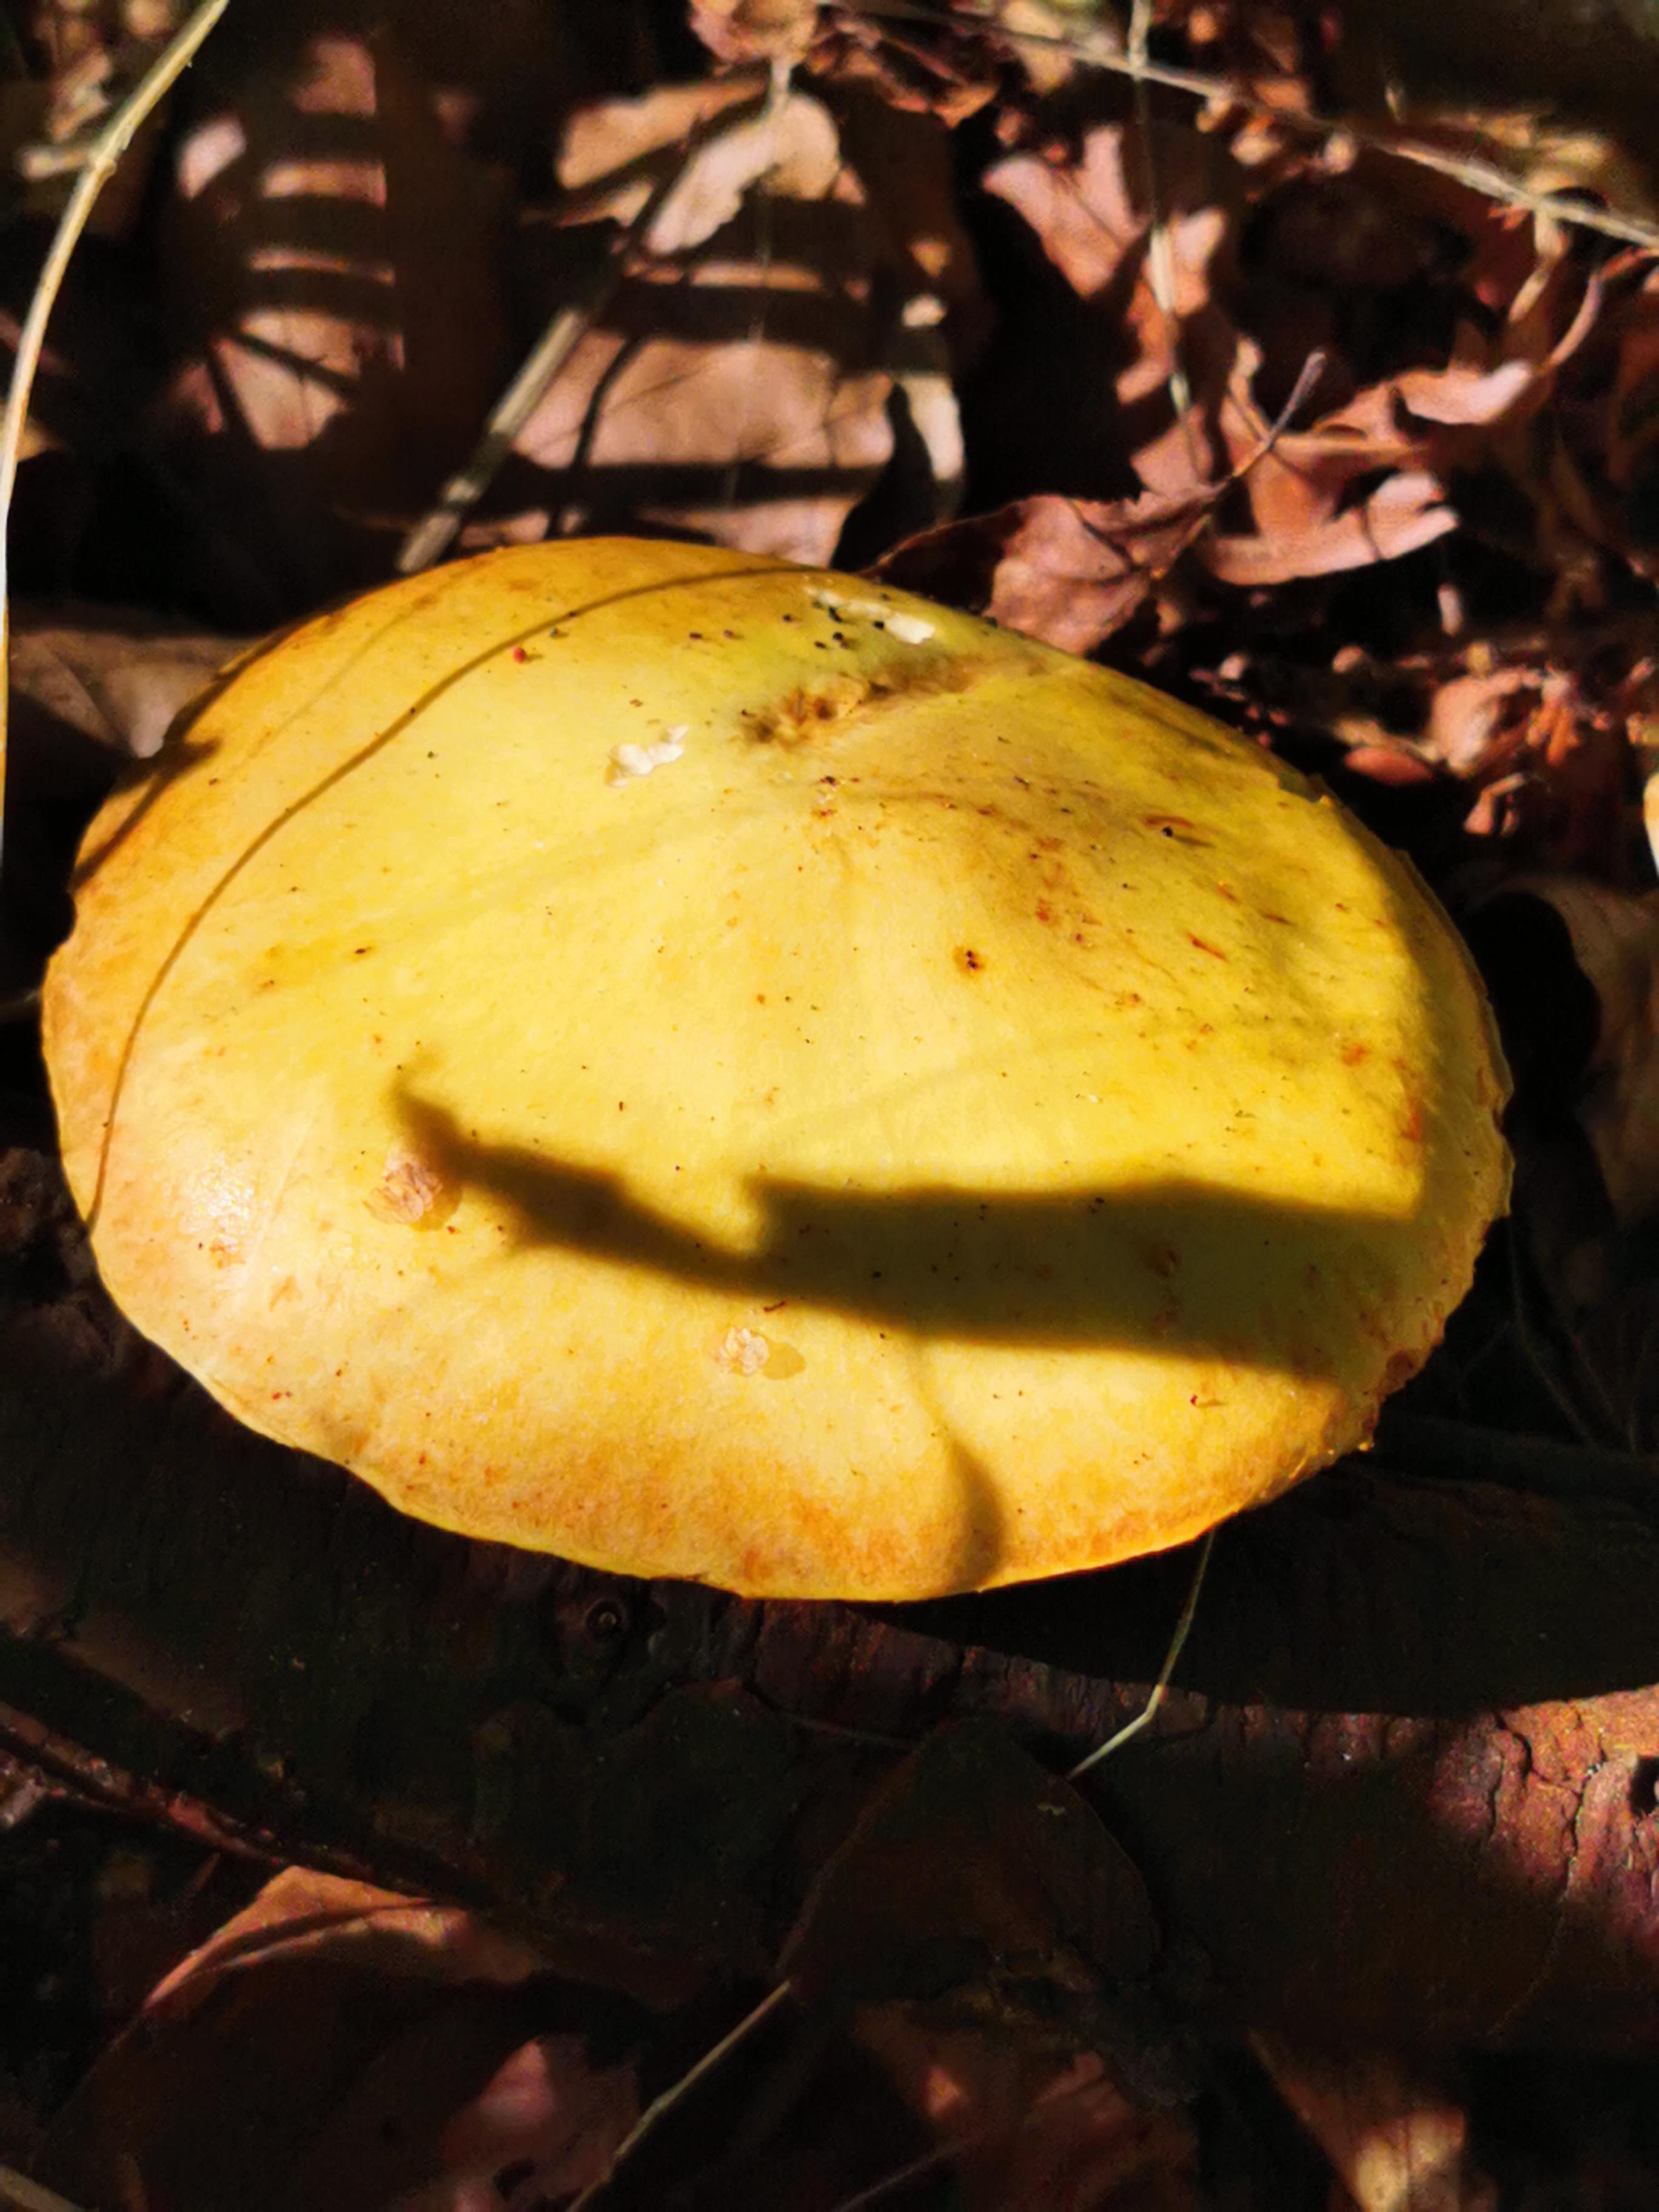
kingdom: Fungi
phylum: Basidiomycota
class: Agaricomycetes
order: Boletales
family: Suillaceae
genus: Suillus
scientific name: Suillus grevillei
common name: lærke-slimrørhat
